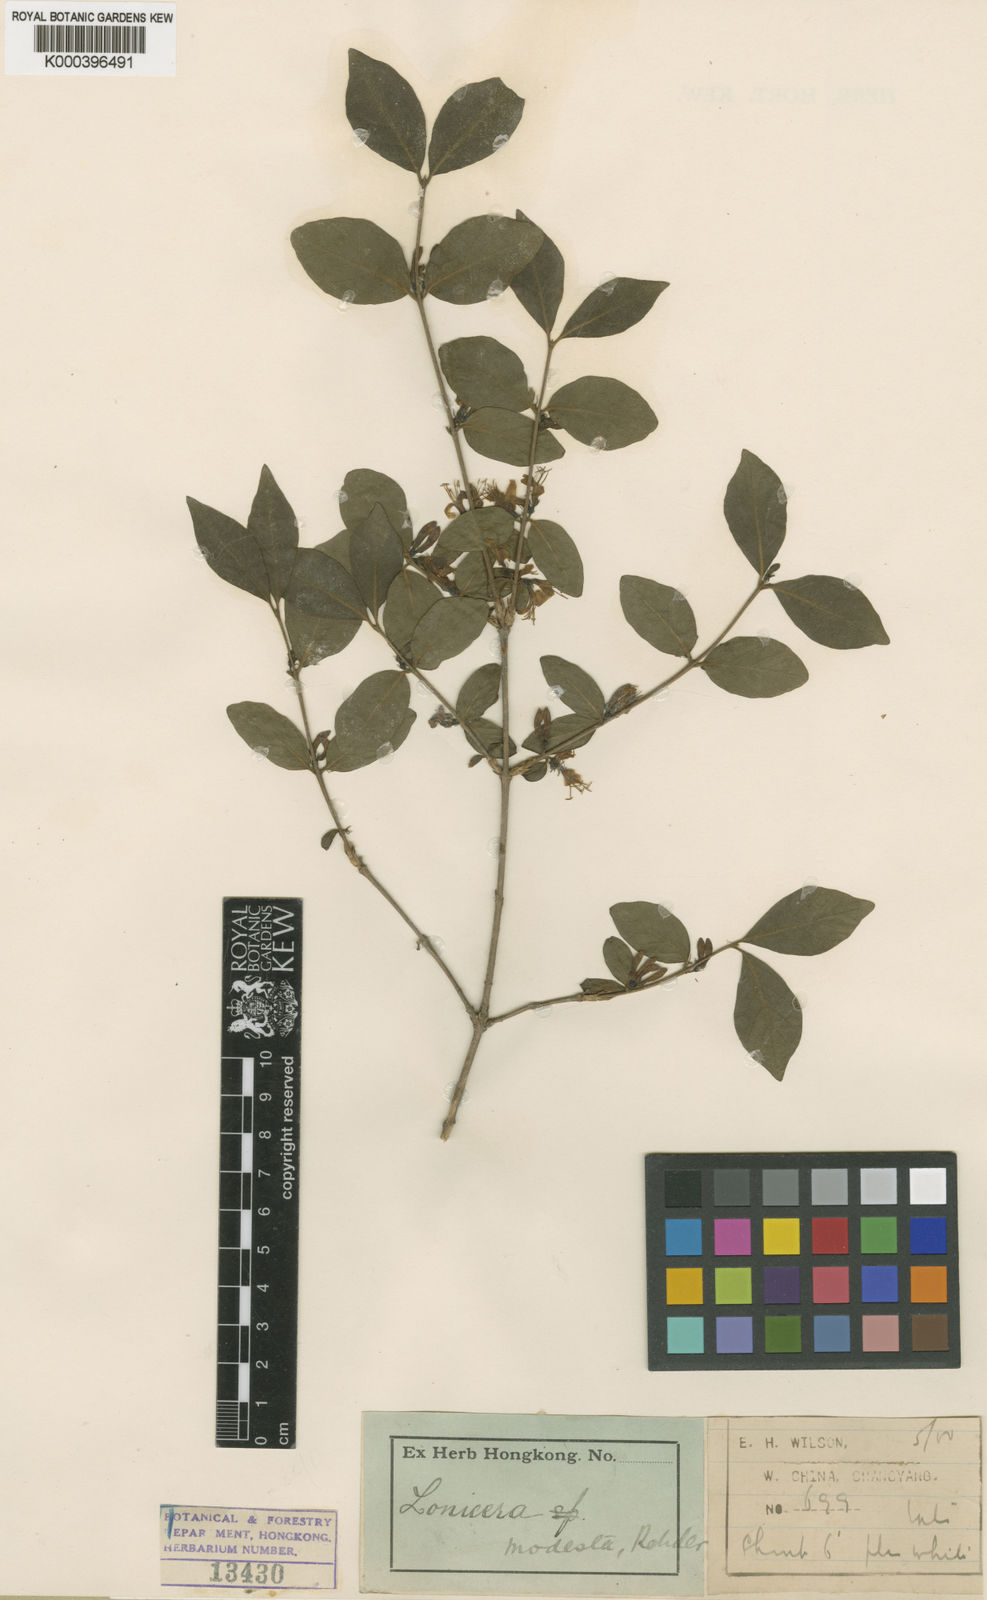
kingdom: Plantae
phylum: Tracheophyta
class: Magnoliopsida
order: Dipsacales
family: Caprifoliaceae
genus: Lonicera
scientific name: Lonicera modesta
